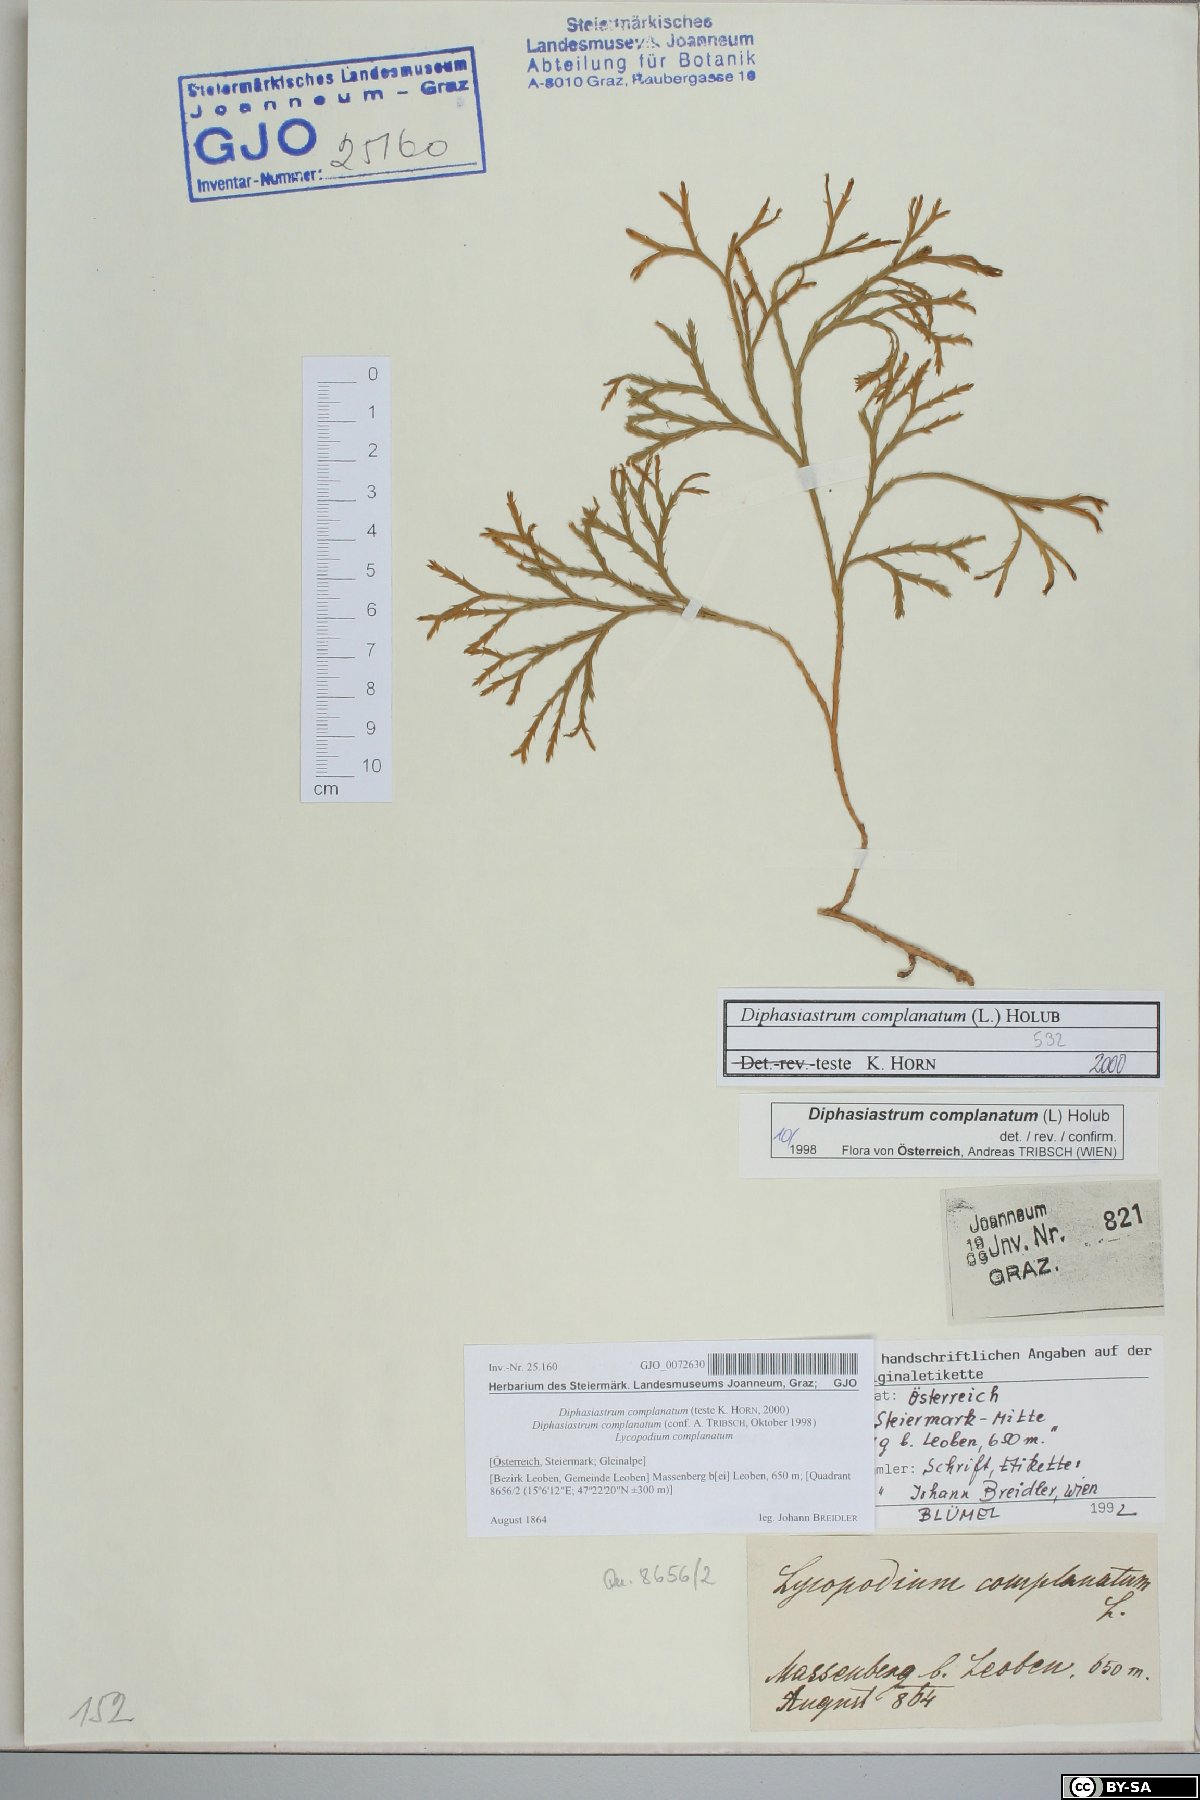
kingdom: Plantae
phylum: Tracheophyta
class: Lycopodiopsida
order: Lycopodiales
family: Lycopodiaceae
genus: Diphasiastrum
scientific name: Diphasiastrum complanatum
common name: Northern running-pine
